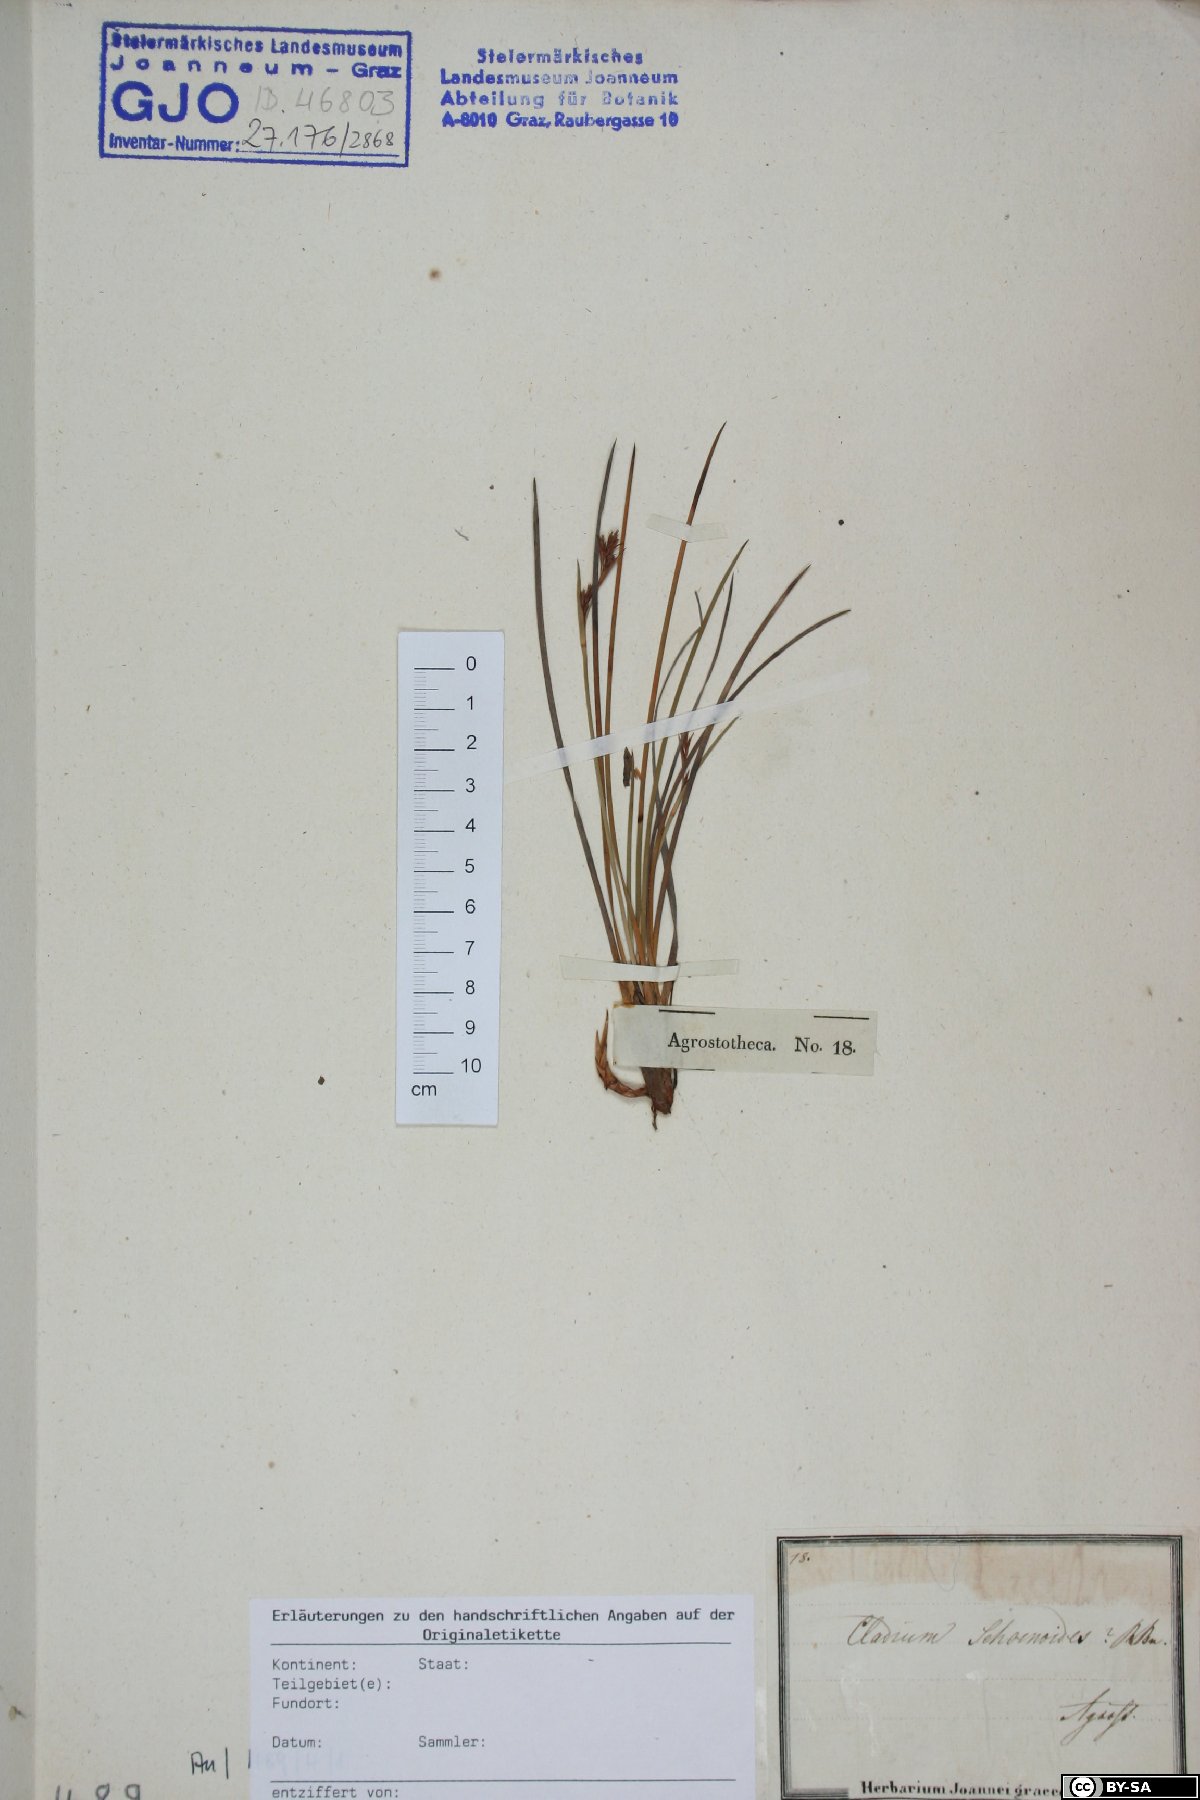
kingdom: Plantae
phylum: Tracheophyta
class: Liliopsida
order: Poales
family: Cyperaceae
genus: Machaerina
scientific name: Machaerina acuta
